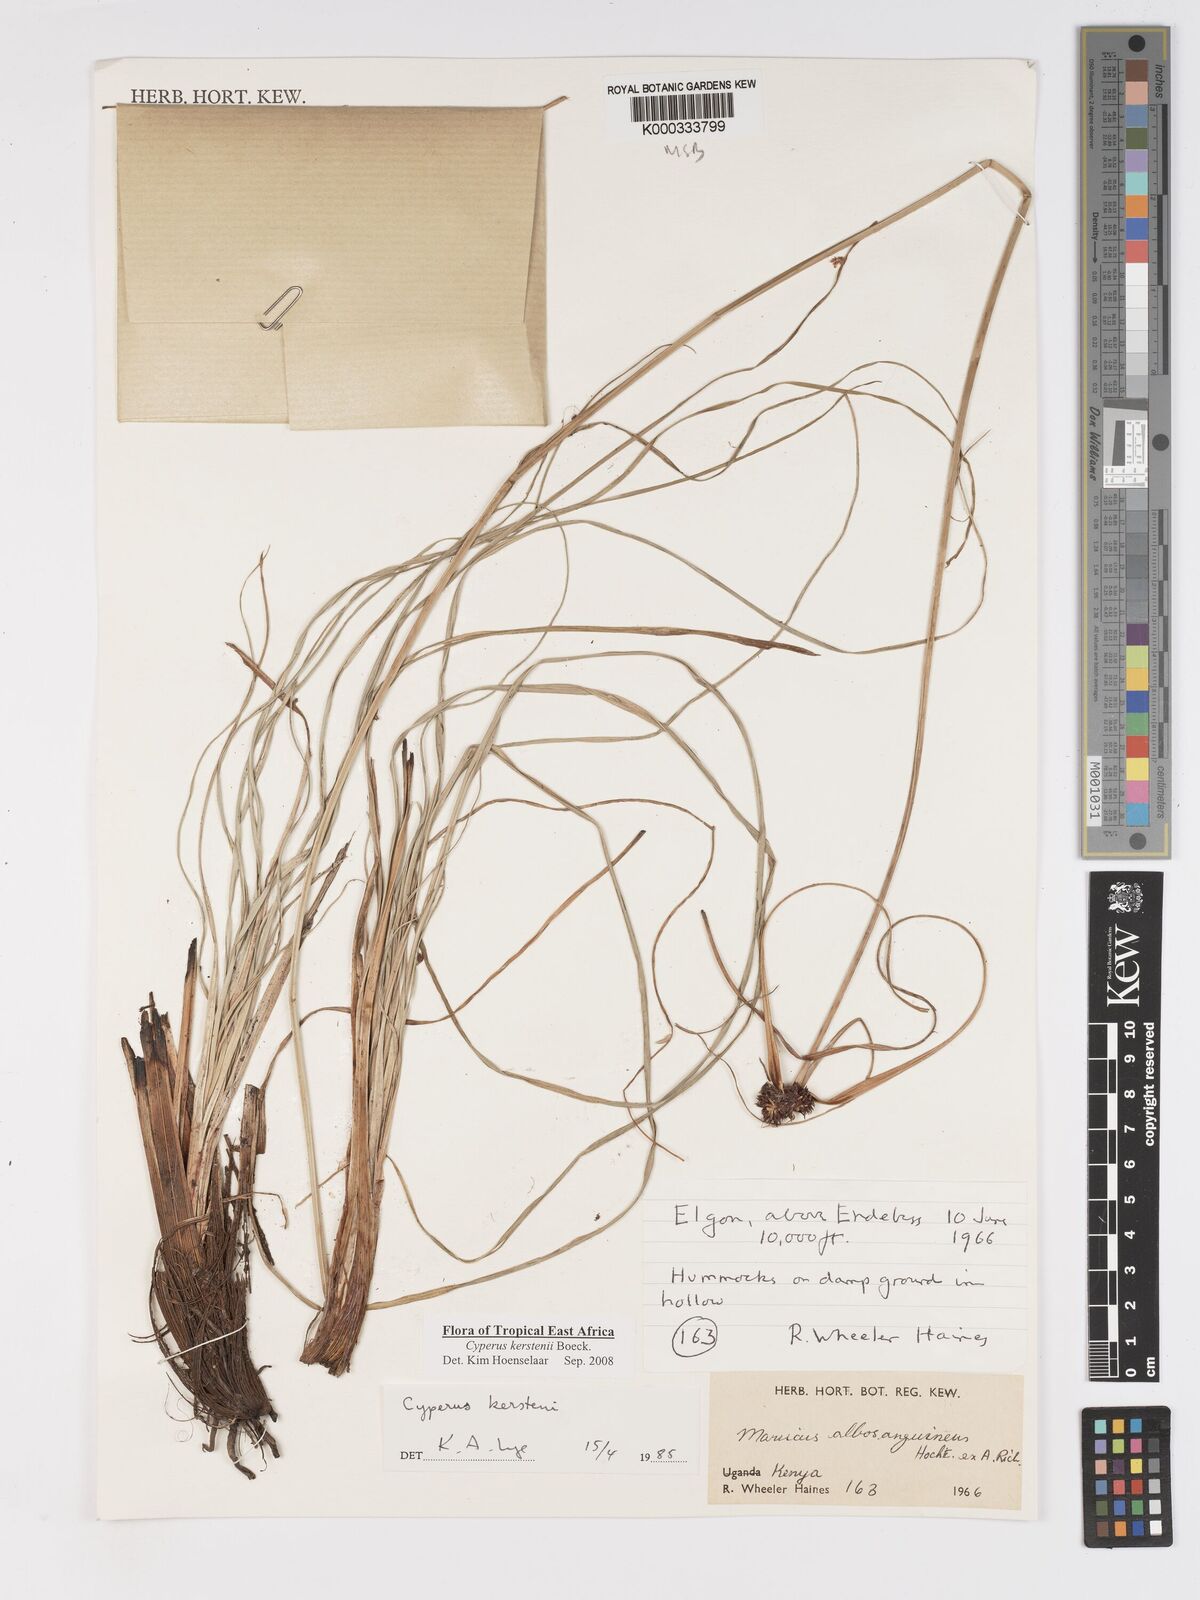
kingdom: Plantae
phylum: Tracheophyta
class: Liliopsida
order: Poales
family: Cyperaceae
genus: Cyperus
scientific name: Cyperus kerstenii
